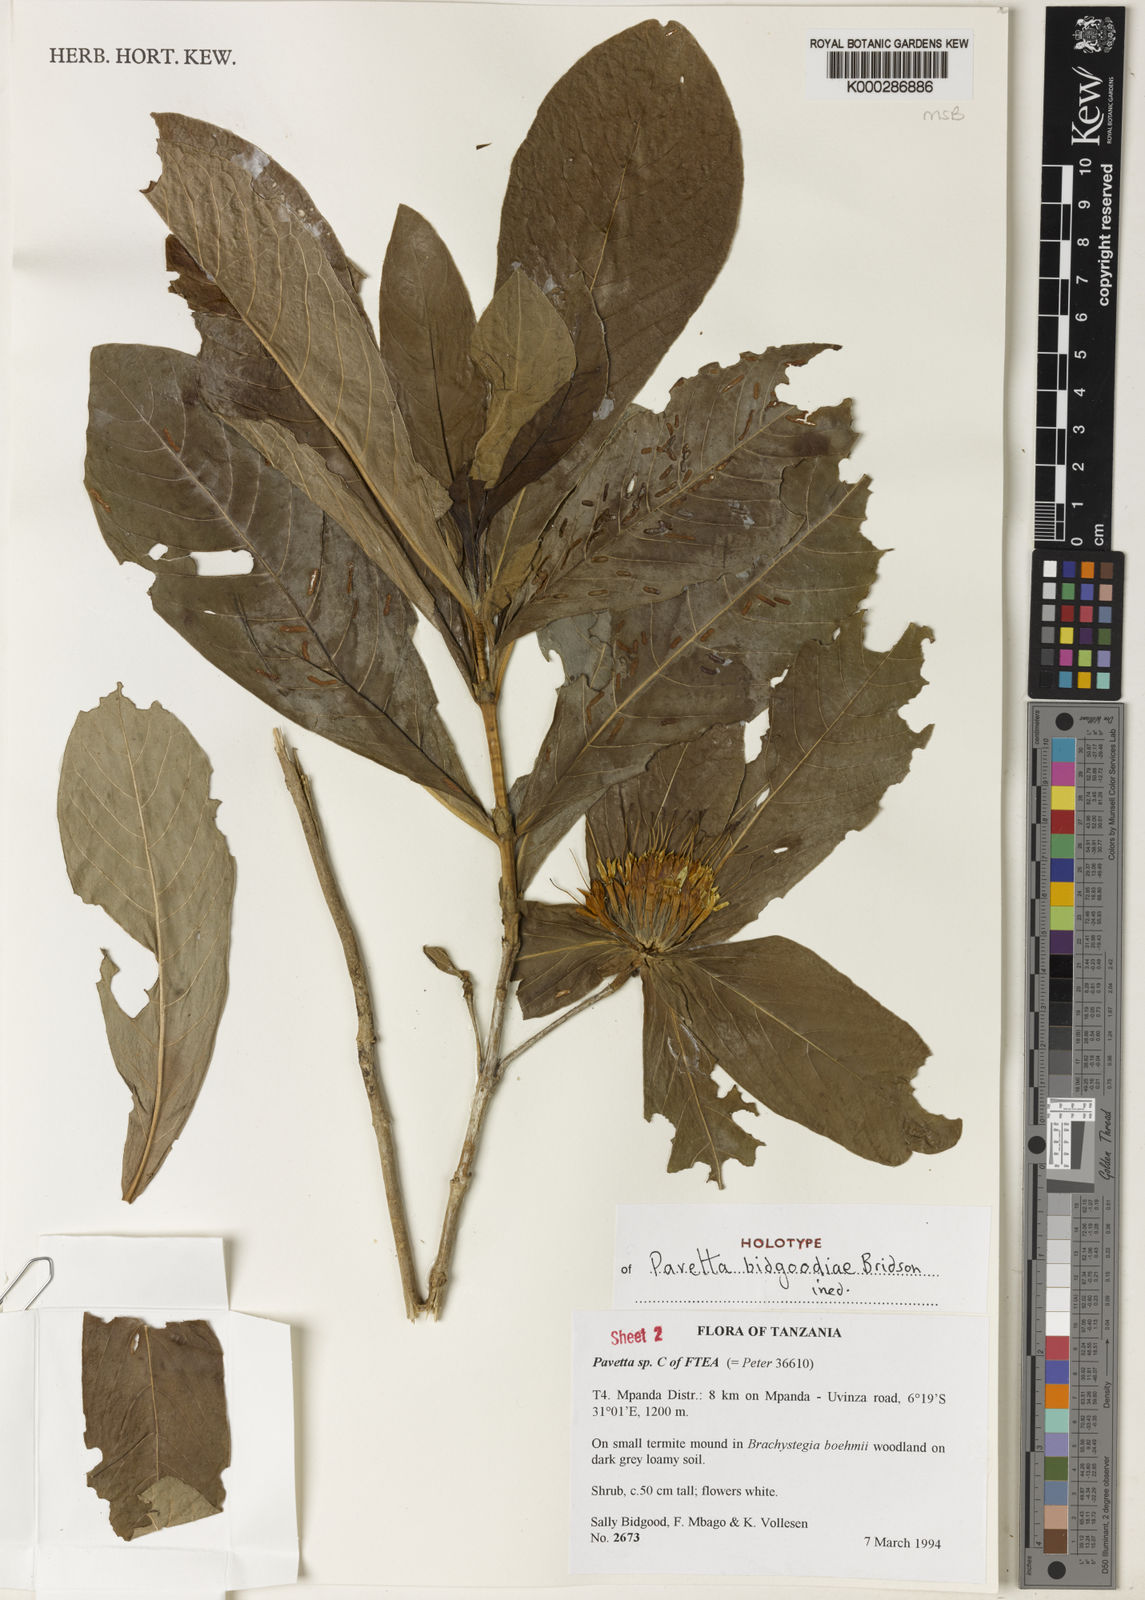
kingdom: Plantae
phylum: Tracheophyta
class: Magnoliopsida
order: Gentianales
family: Rubiaceae
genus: Pavetta
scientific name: Pavetta bidgoodiae
